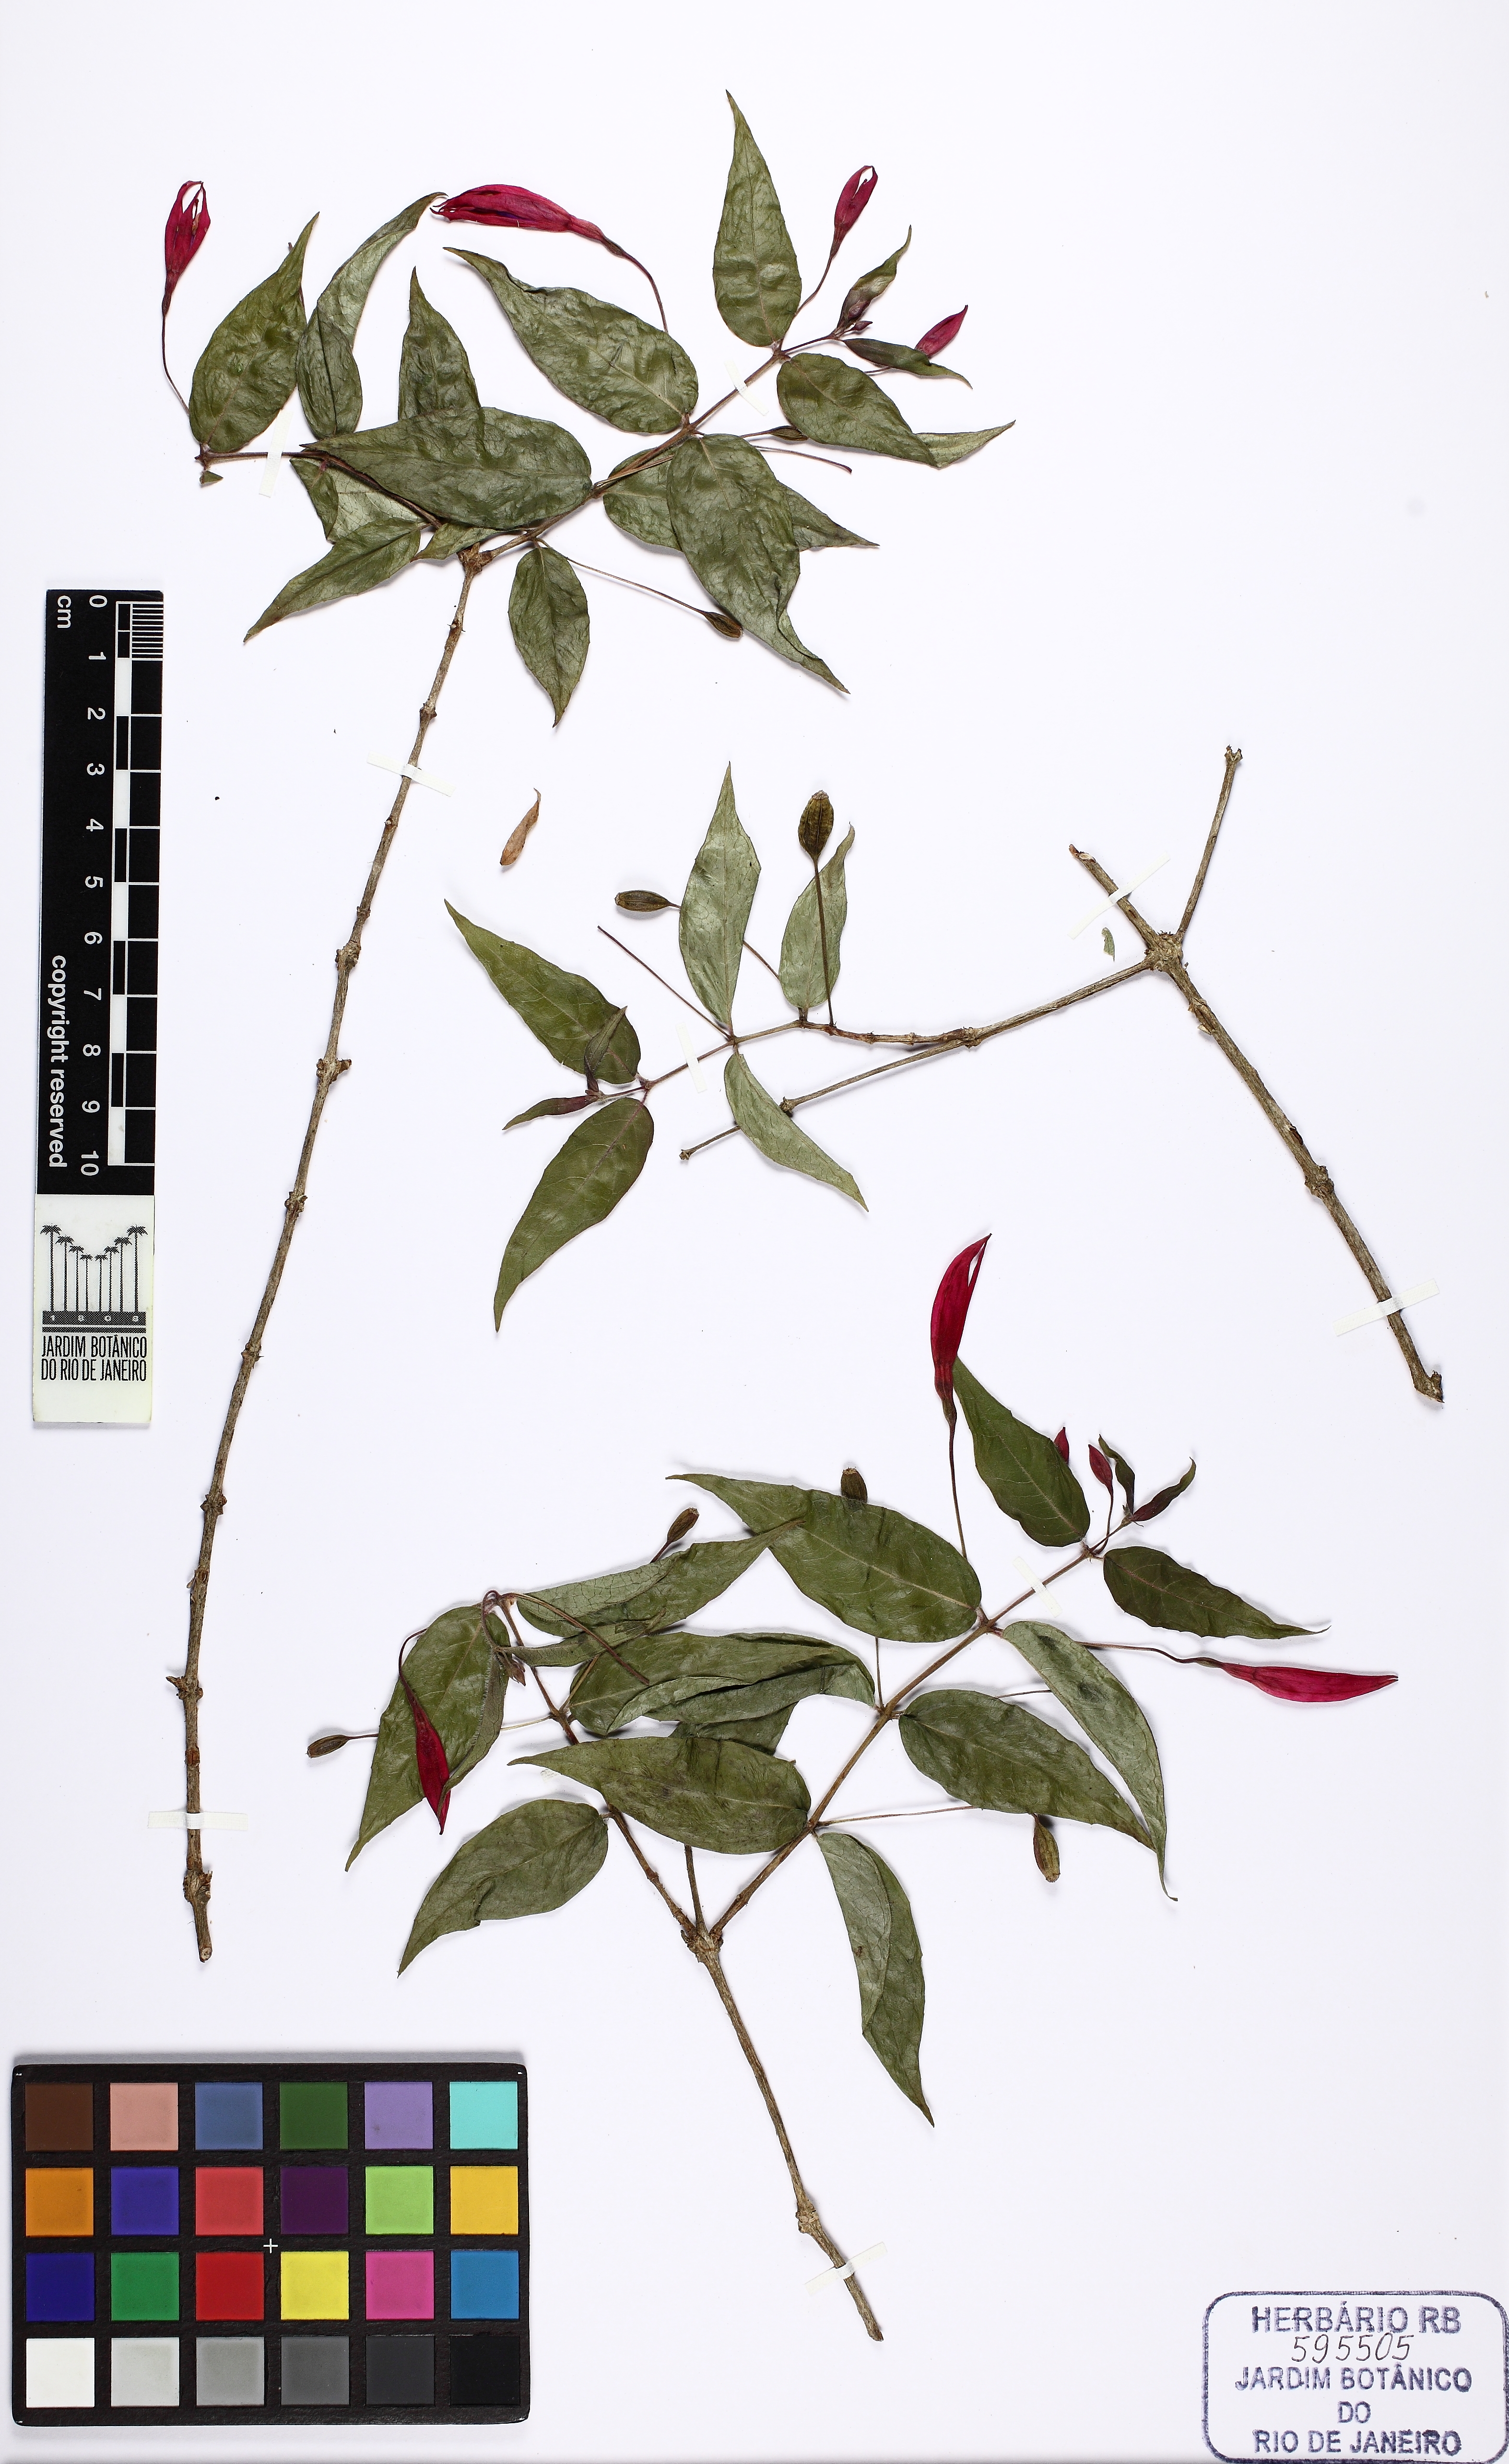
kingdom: Plantae
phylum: Tracheophyta
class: Magnoliopsida
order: Myrtales
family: Onagraceae
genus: Fuchsia
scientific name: Fuchsia regia
